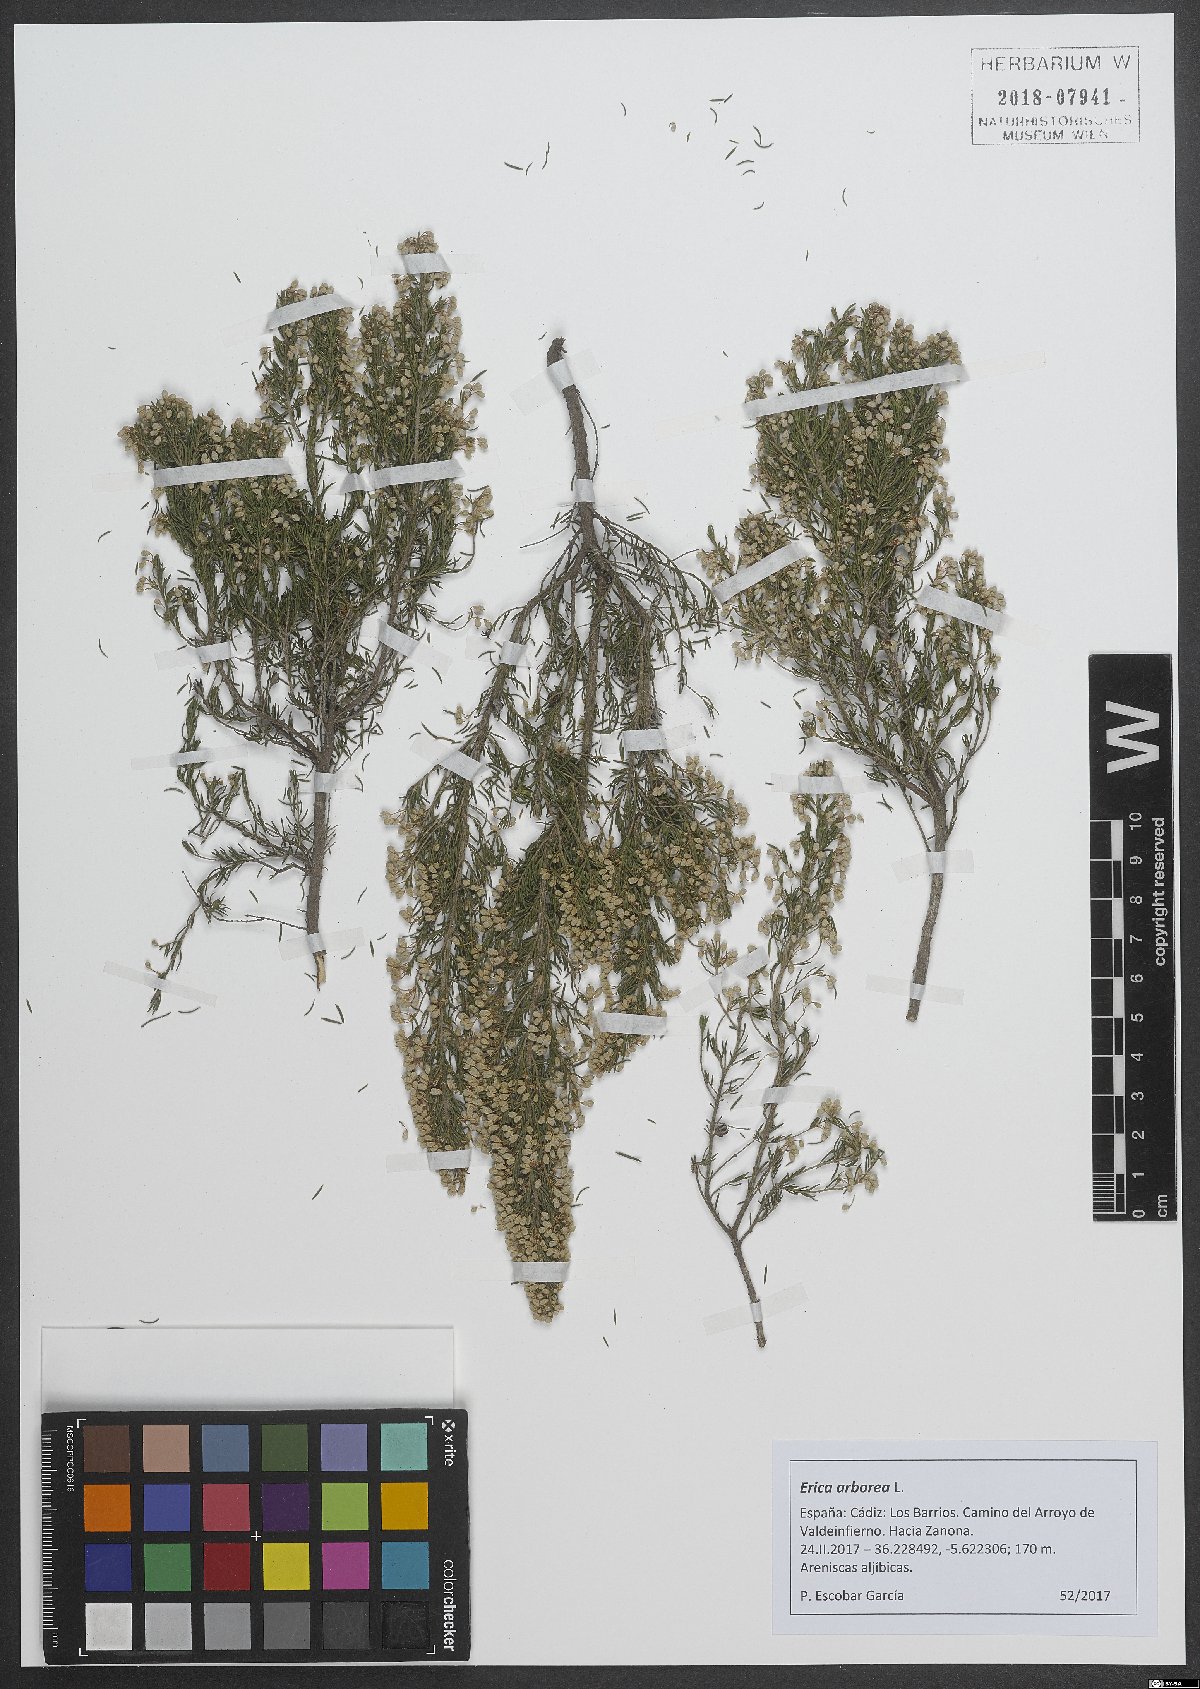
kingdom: Plantae
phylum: Tracheophyta
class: Magnoliopsida
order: Ericales
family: Ericaceae
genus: Erica
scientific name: Erica arborea
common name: Tree heath
